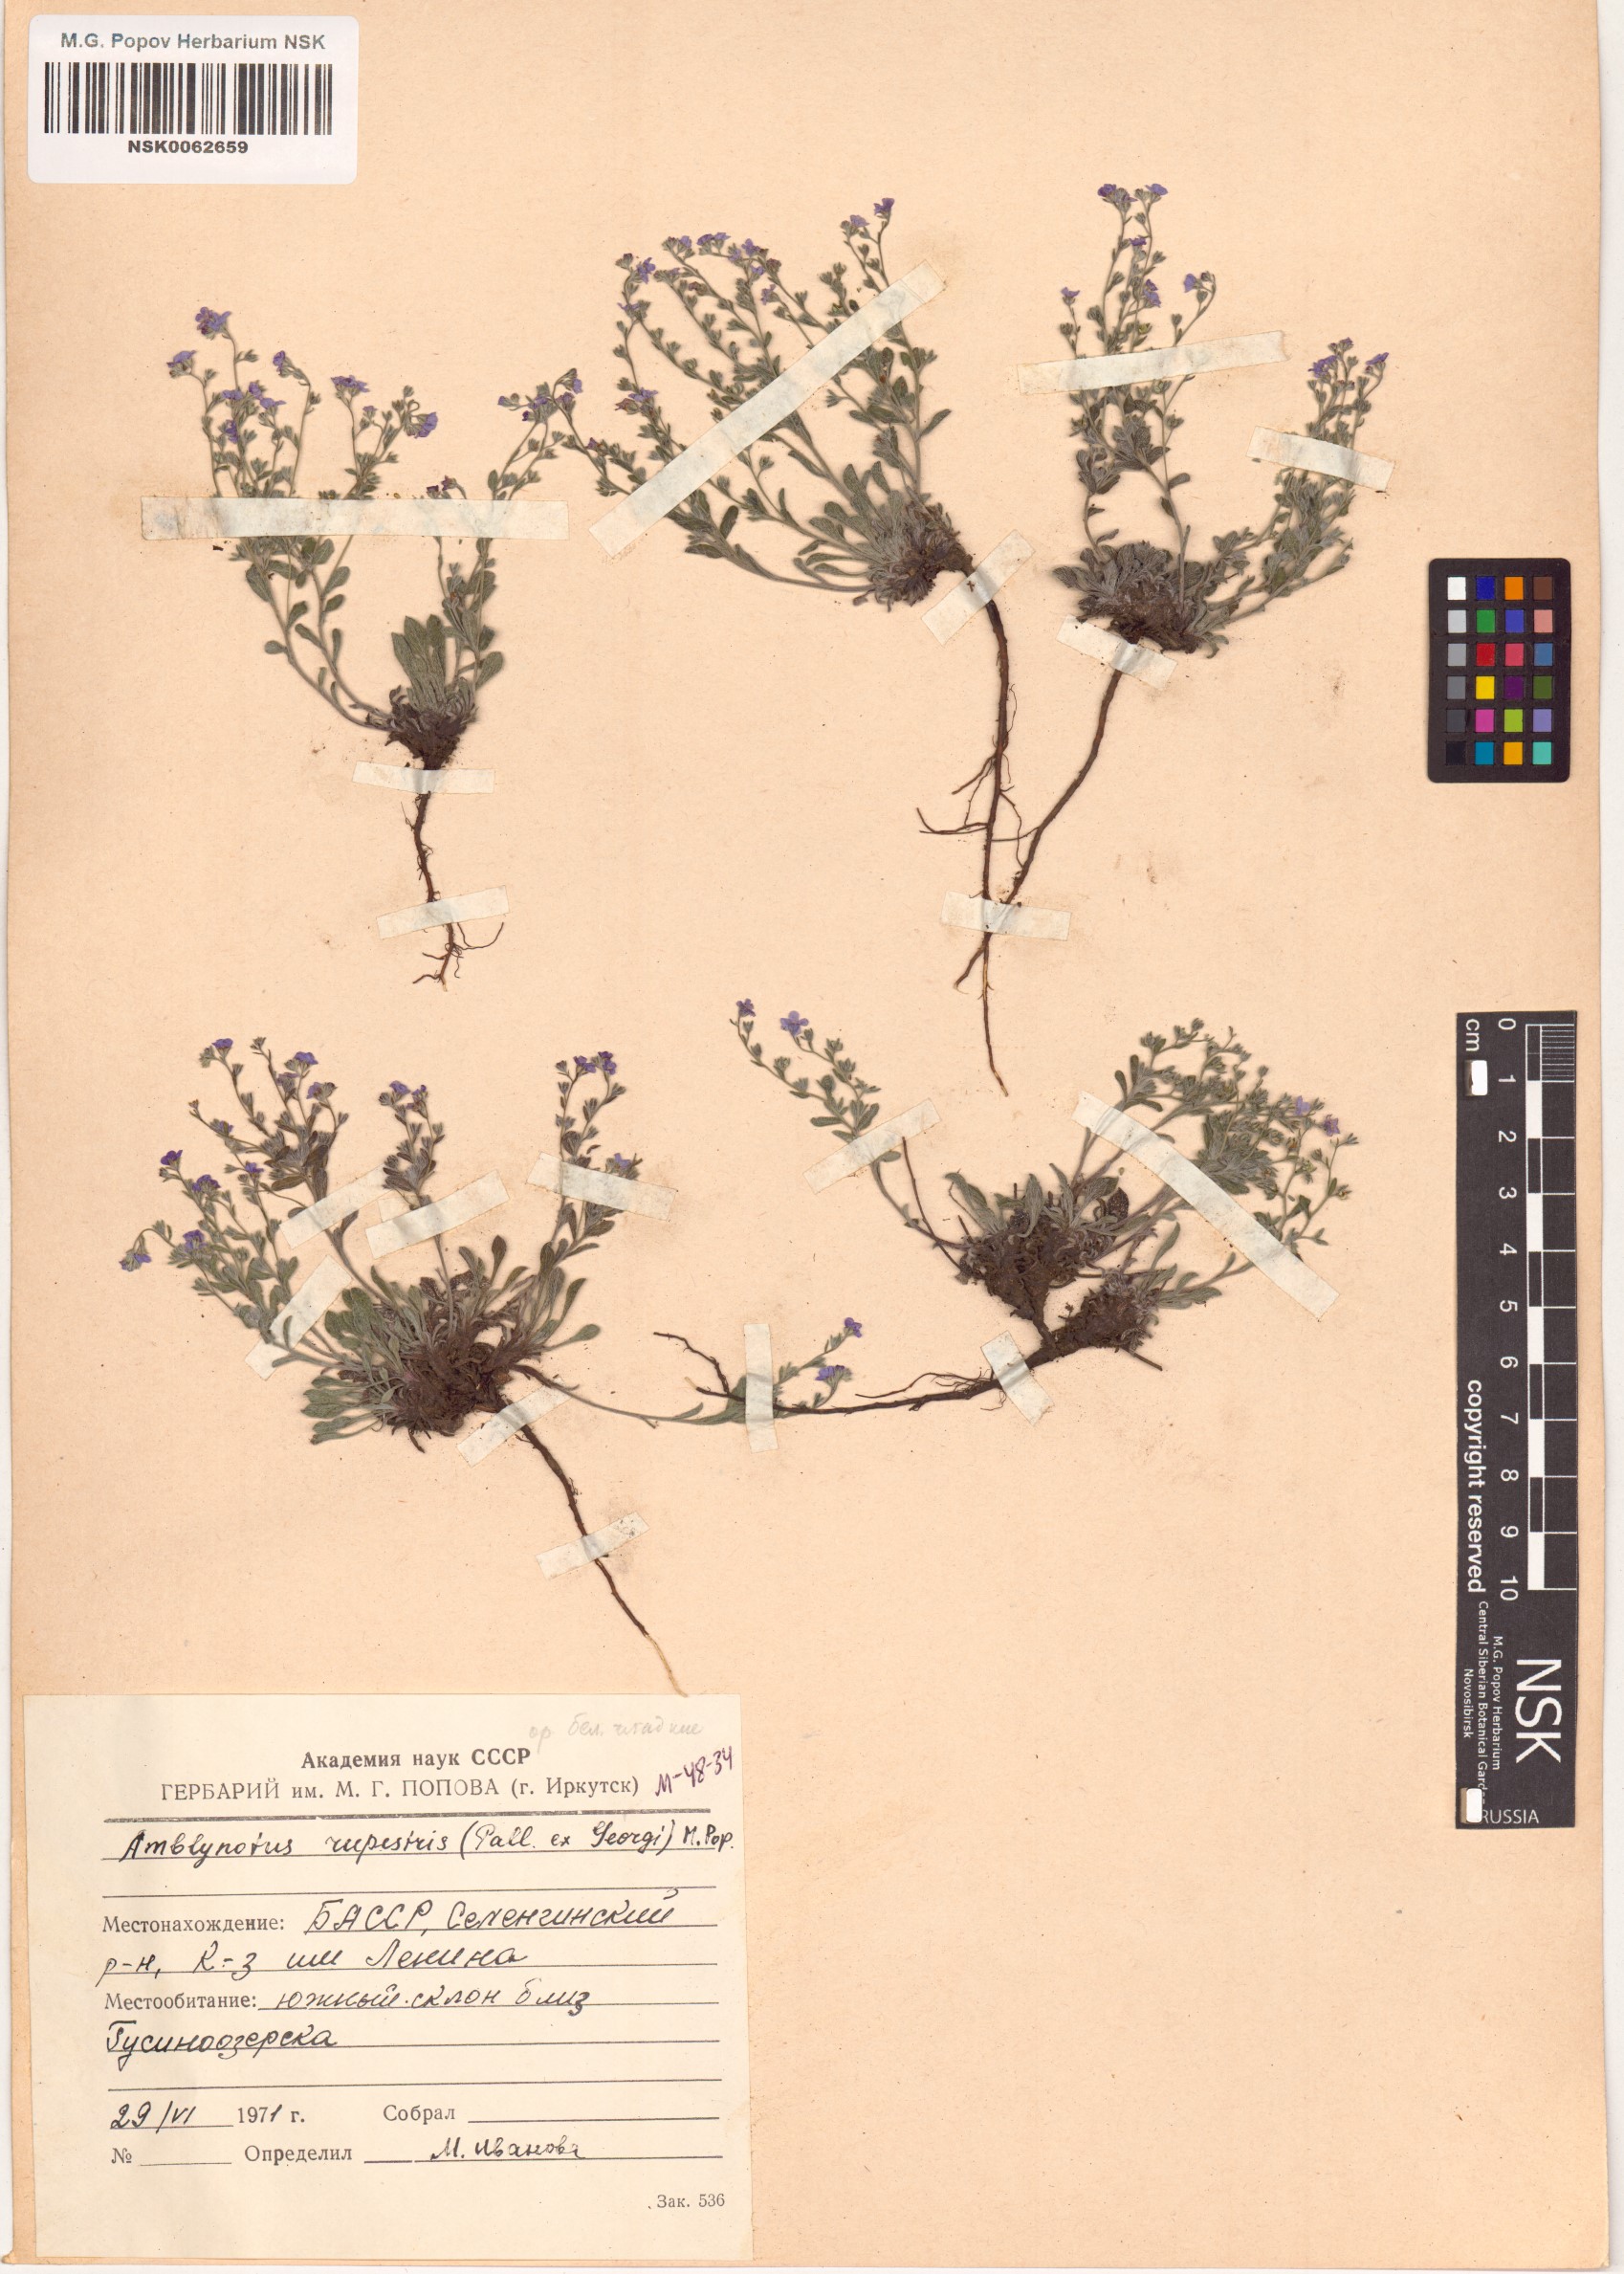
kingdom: Plantae
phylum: Tracheophyta
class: Magnoliopsida
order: Boraginales
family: Boraginaceae
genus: Eritrichium
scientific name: Eritrichium rupestre
